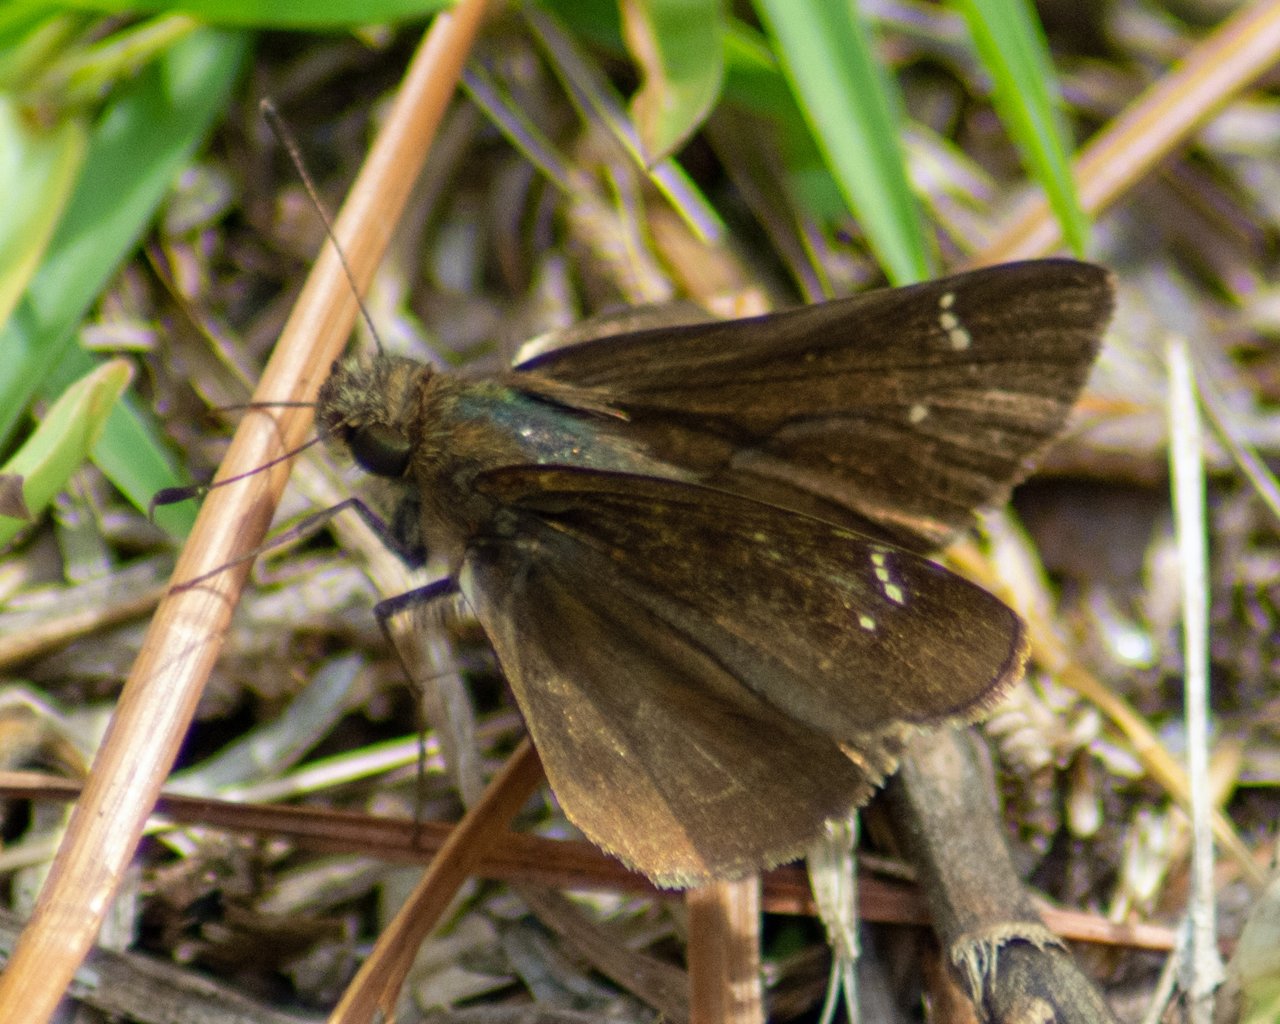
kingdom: Animalia
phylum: Arthropoda
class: Insecta
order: Lepidoptera
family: Hesperiidae
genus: Lerema
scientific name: Lerema accius
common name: Clouded Skipper
